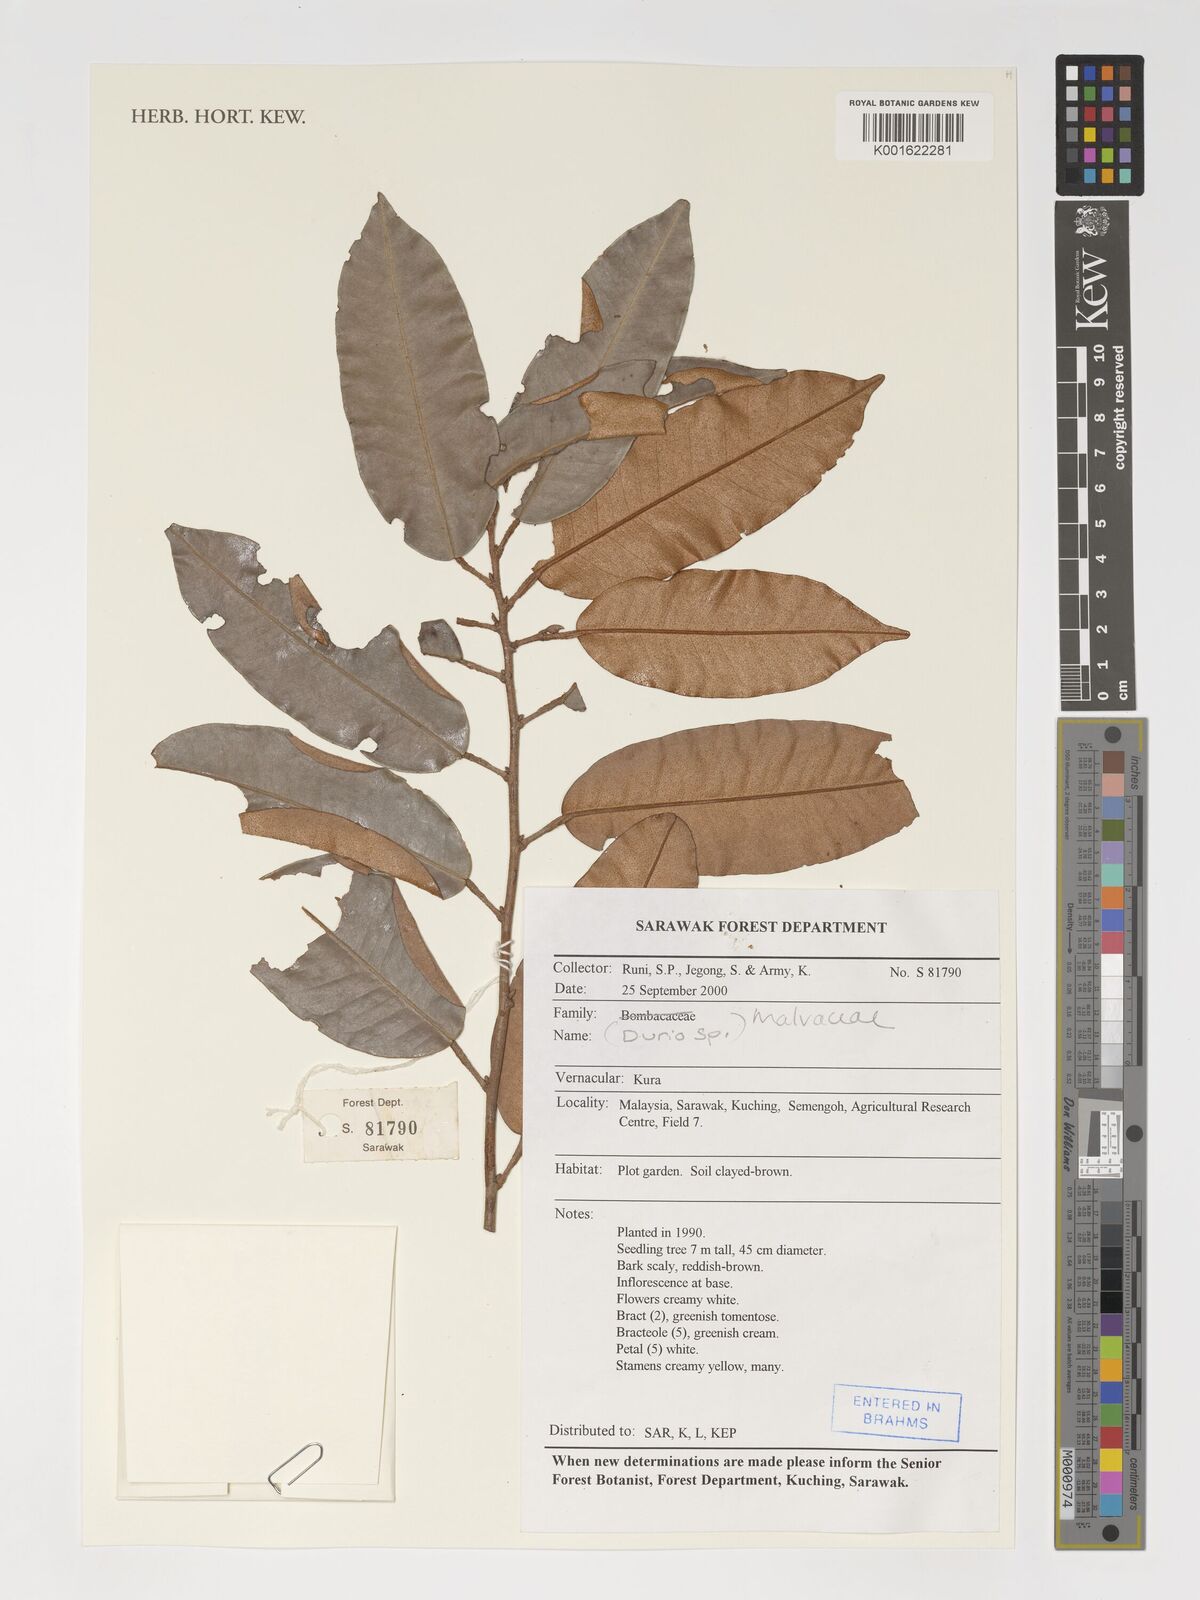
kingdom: Plantae
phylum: Tracheophyta
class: Magnoliopsida
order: Malvales
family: Malvaceae
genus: Durio
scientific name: Durio
